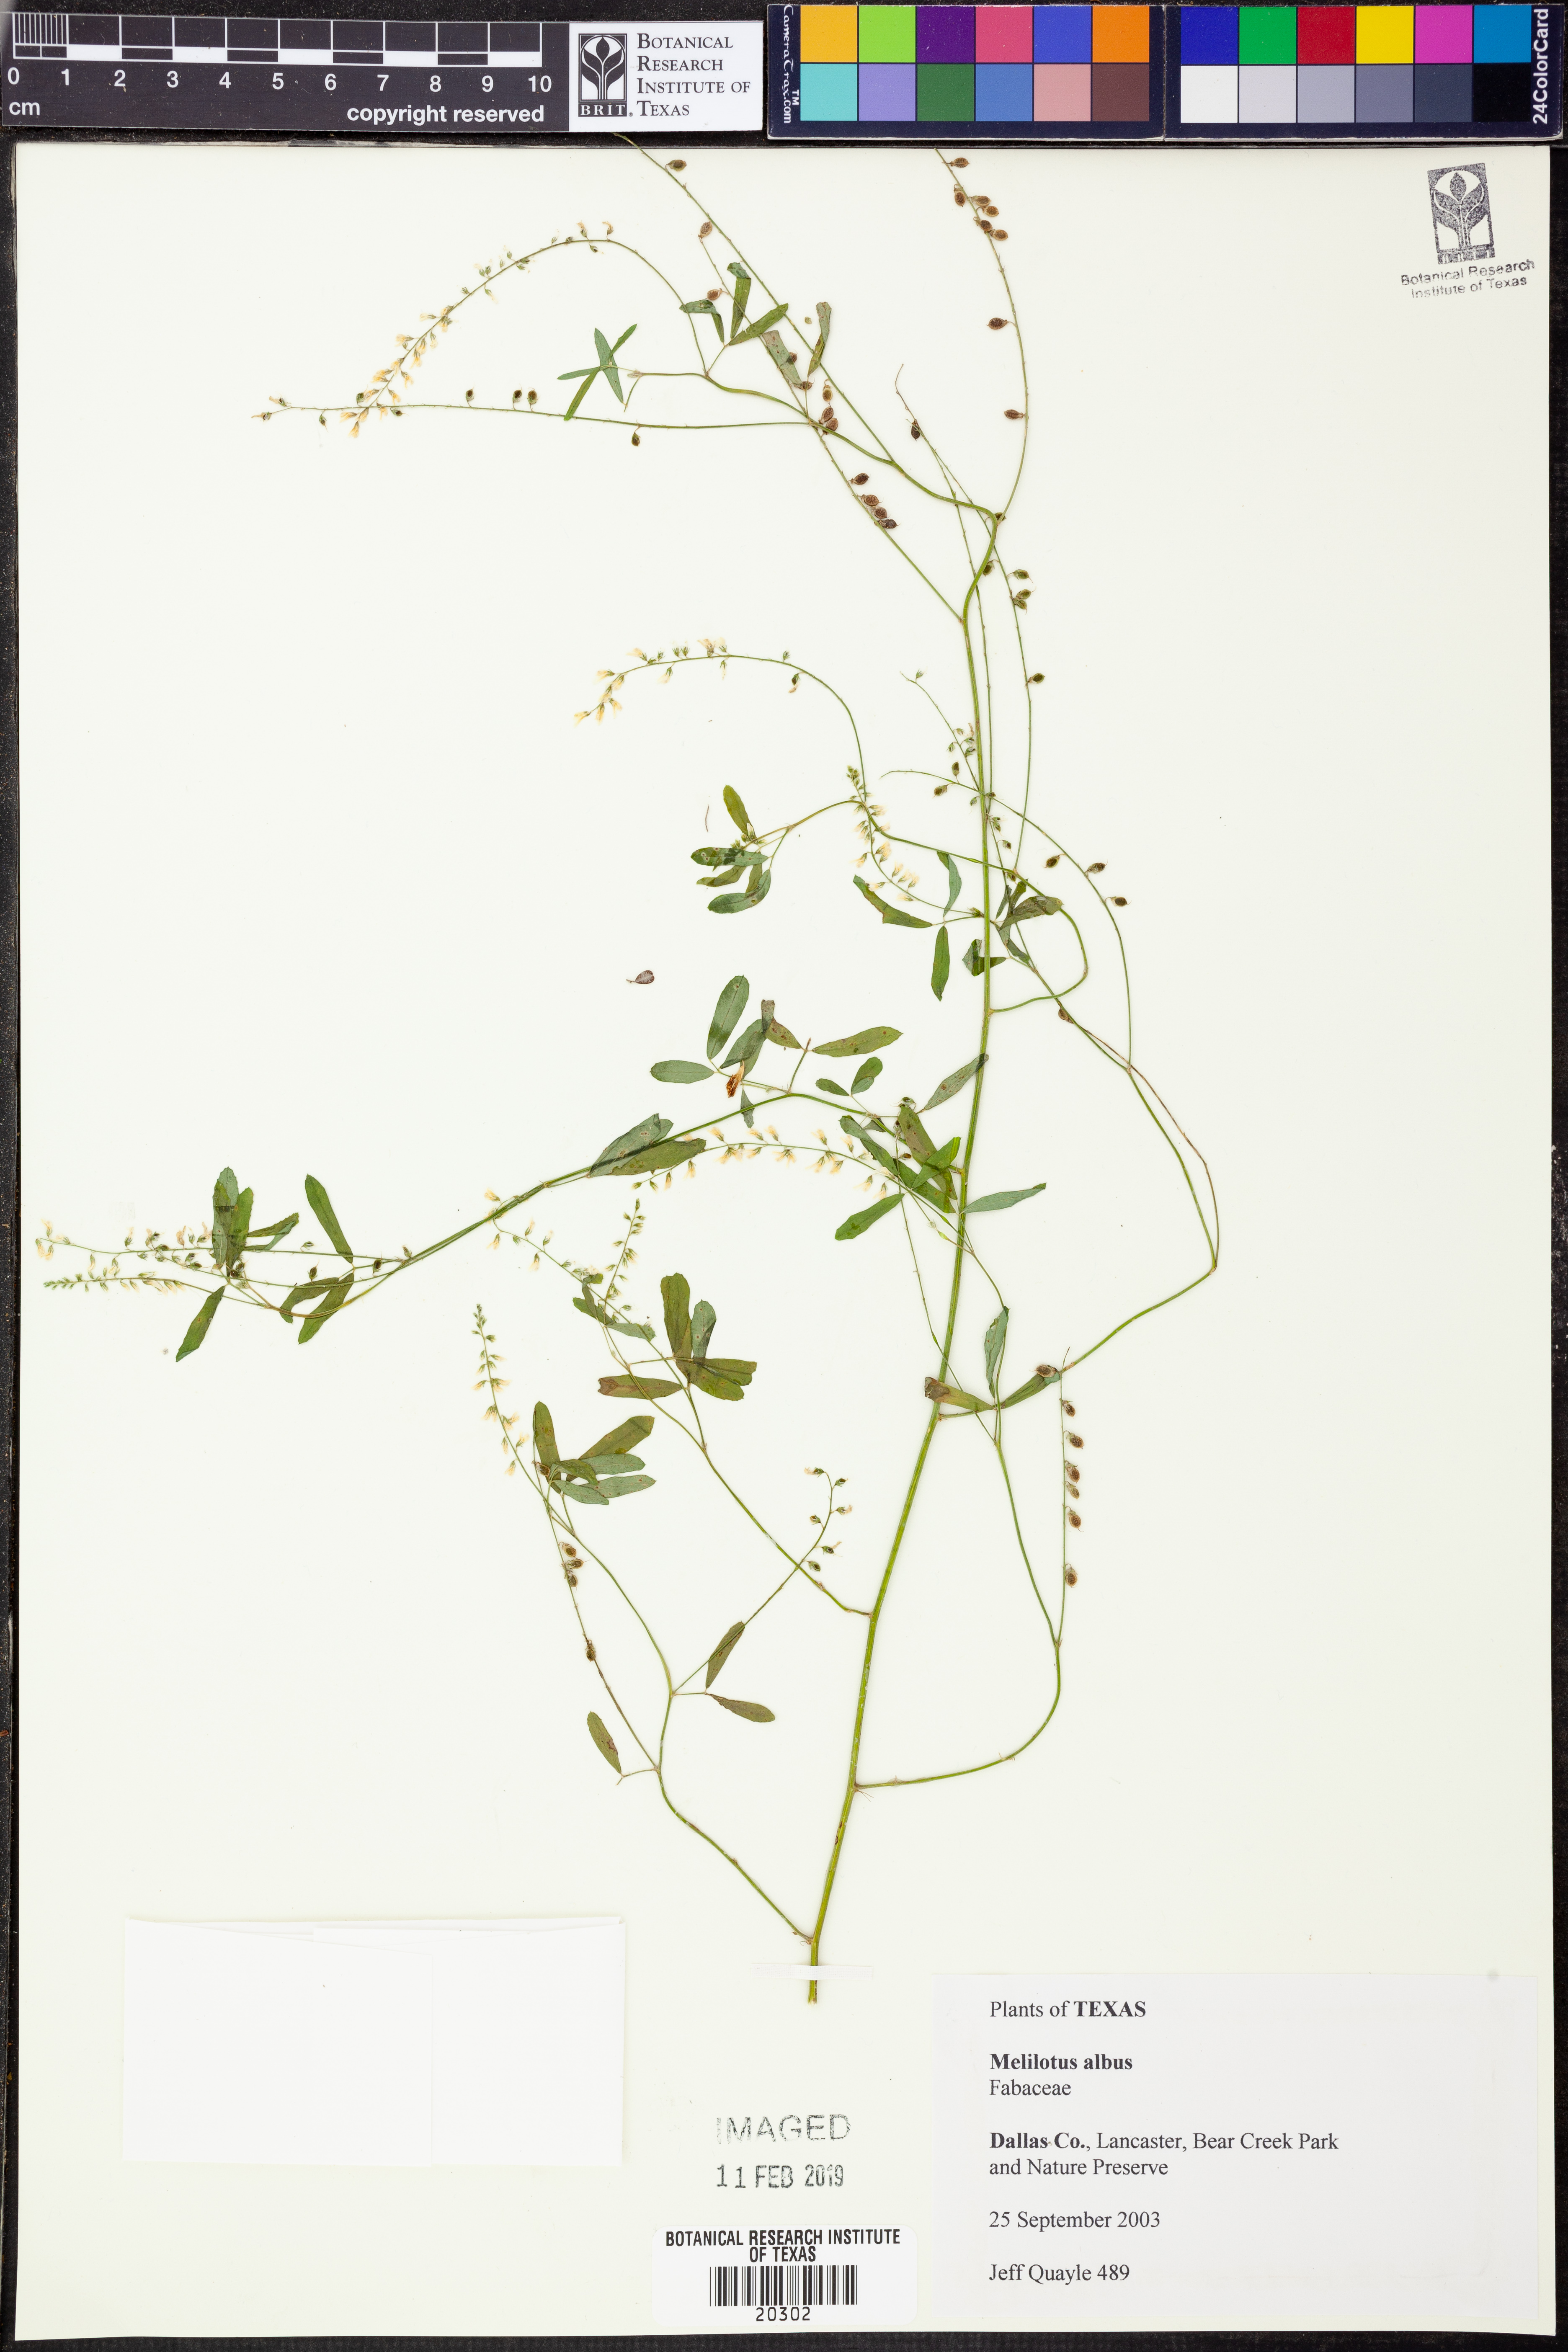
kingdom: Plantae
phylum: Tracheophyta
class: Magnoliopsida
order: Fabales
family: Fabaceae
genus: Melilotus
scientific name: Melilotus albus
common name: White melilot
